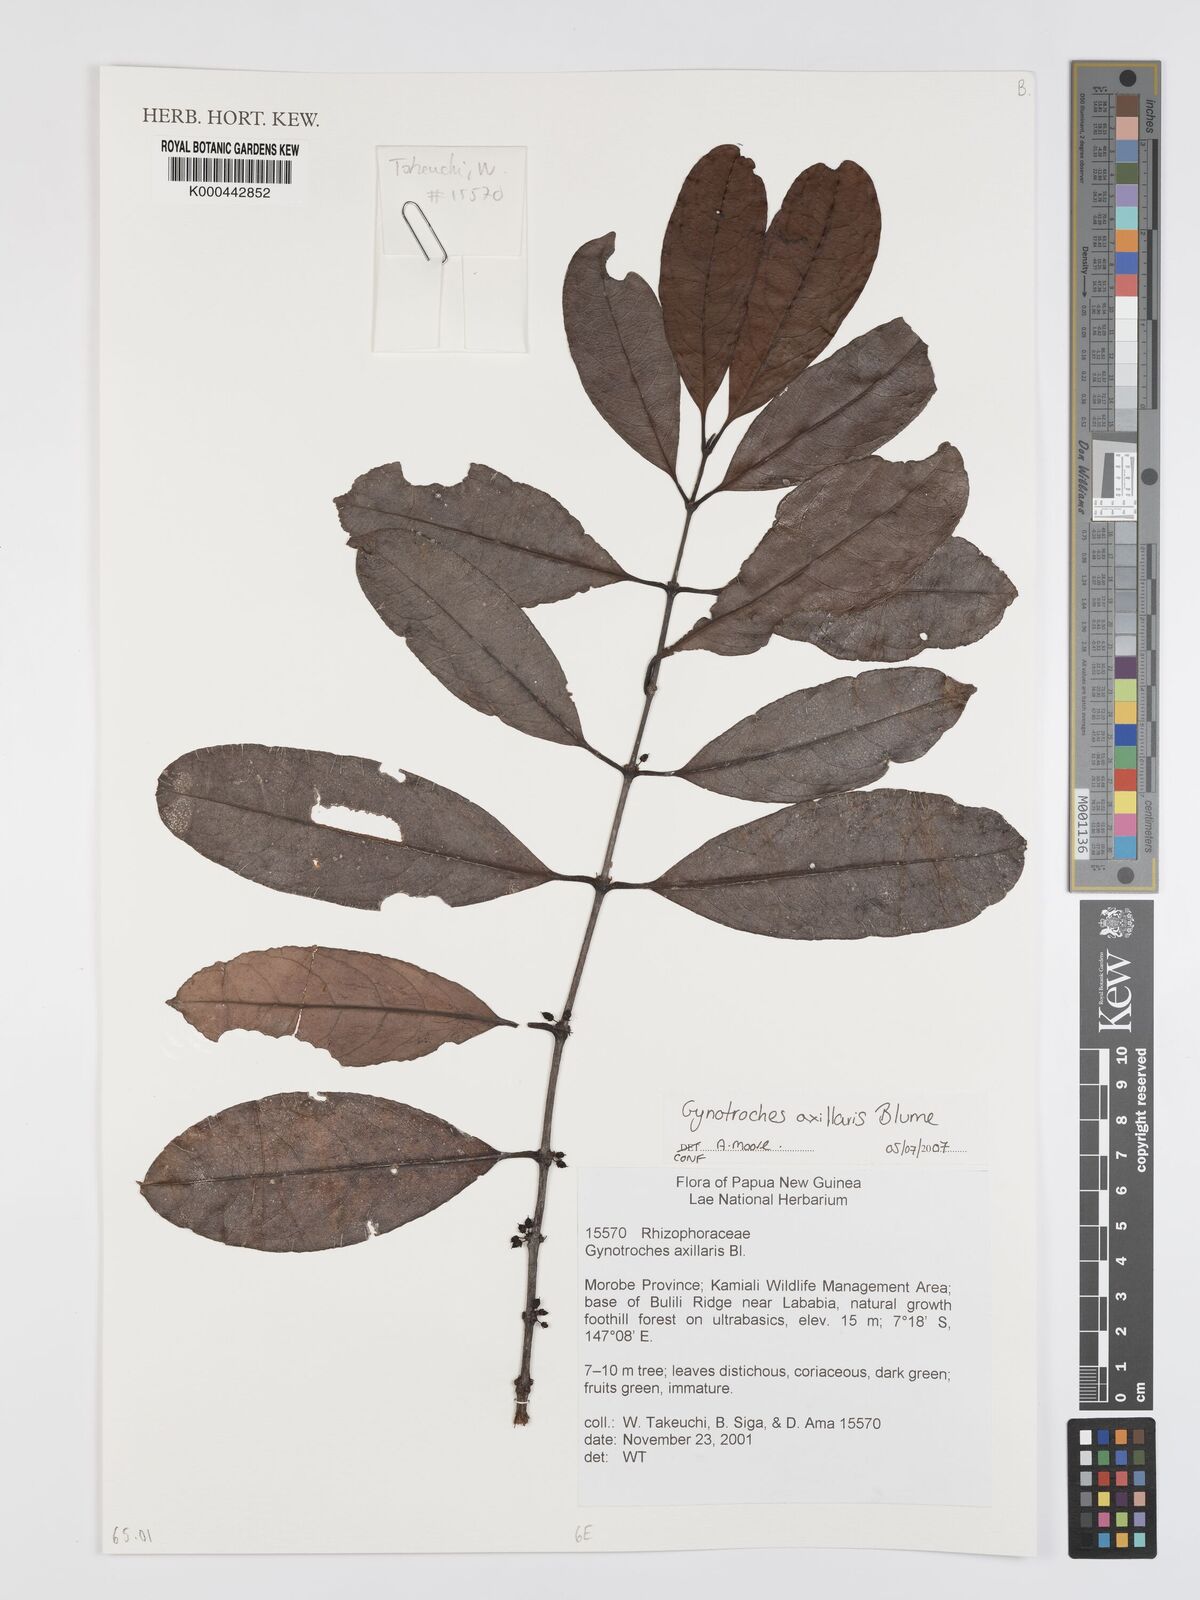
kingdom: Plantae
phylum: Tracheophyta
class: Magnoliopsida
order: Malpighiales
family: Rhizophoraceae
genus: Gynotroches
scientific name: Gynotroches axillaris
